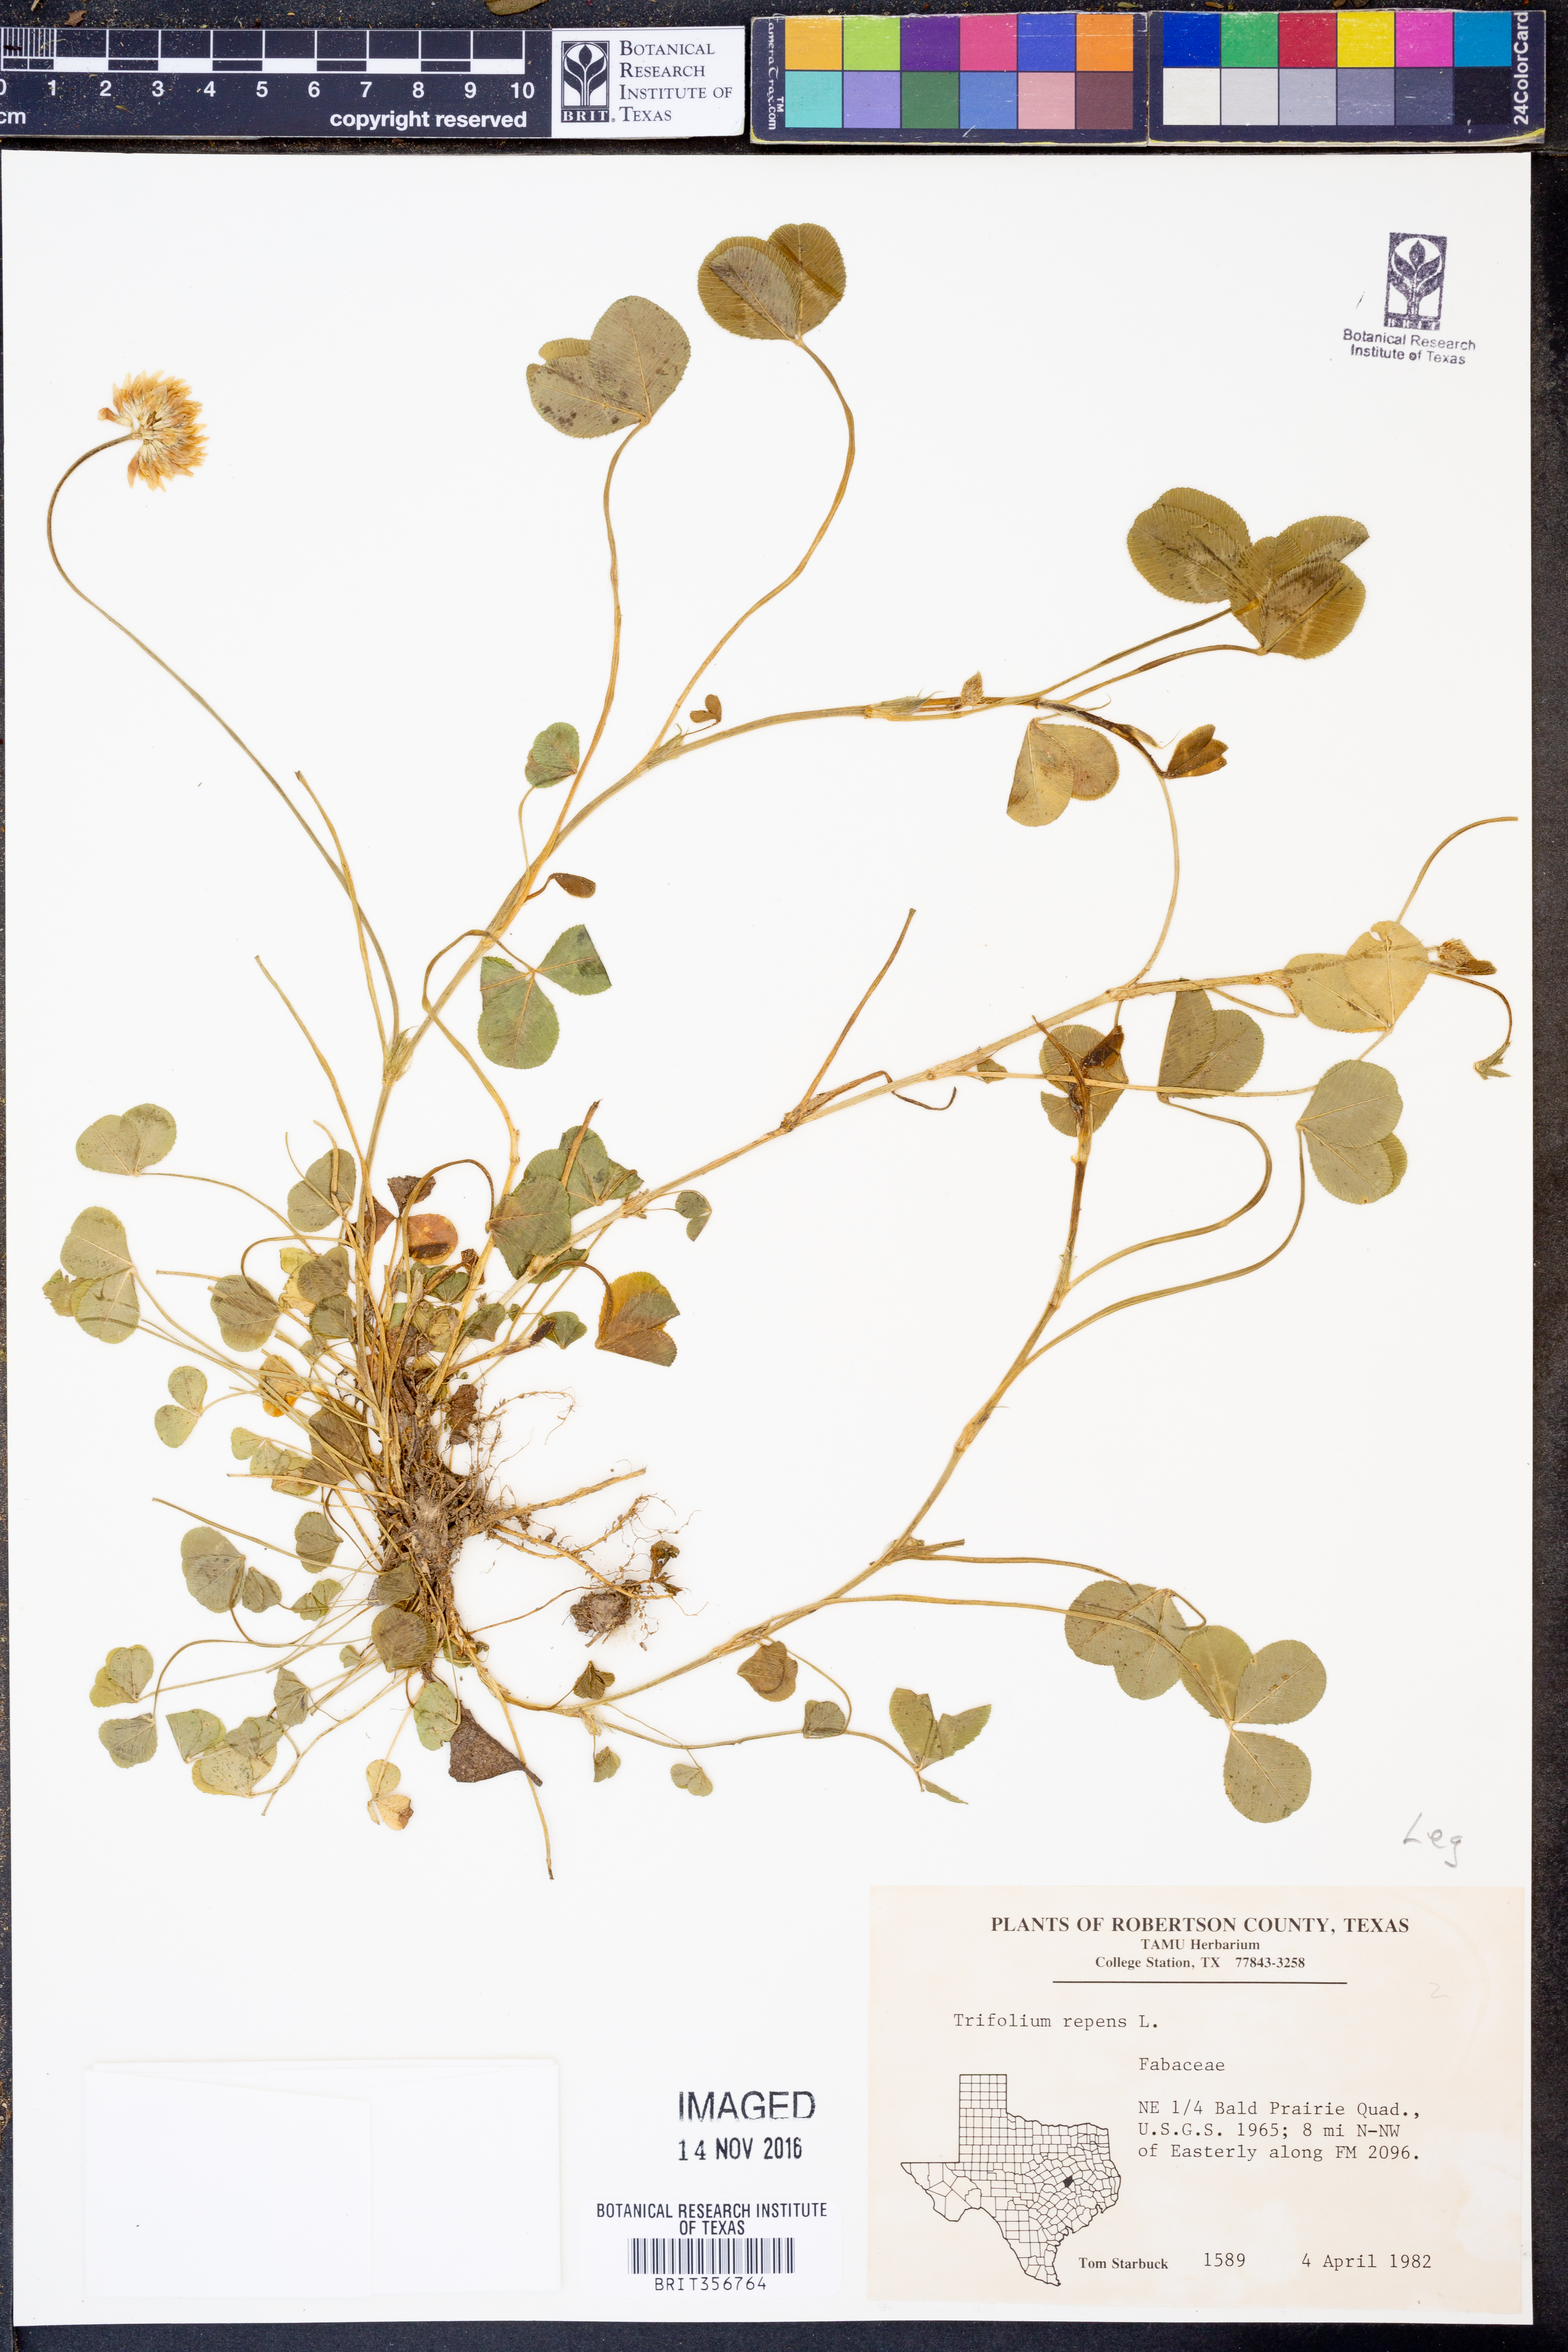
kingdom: Plantae
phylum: Tracheophyta
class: Magnoliopsida
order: Fabales
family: Fabaceae
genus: Trifolium
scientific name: Trifolium repens
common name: White clover
